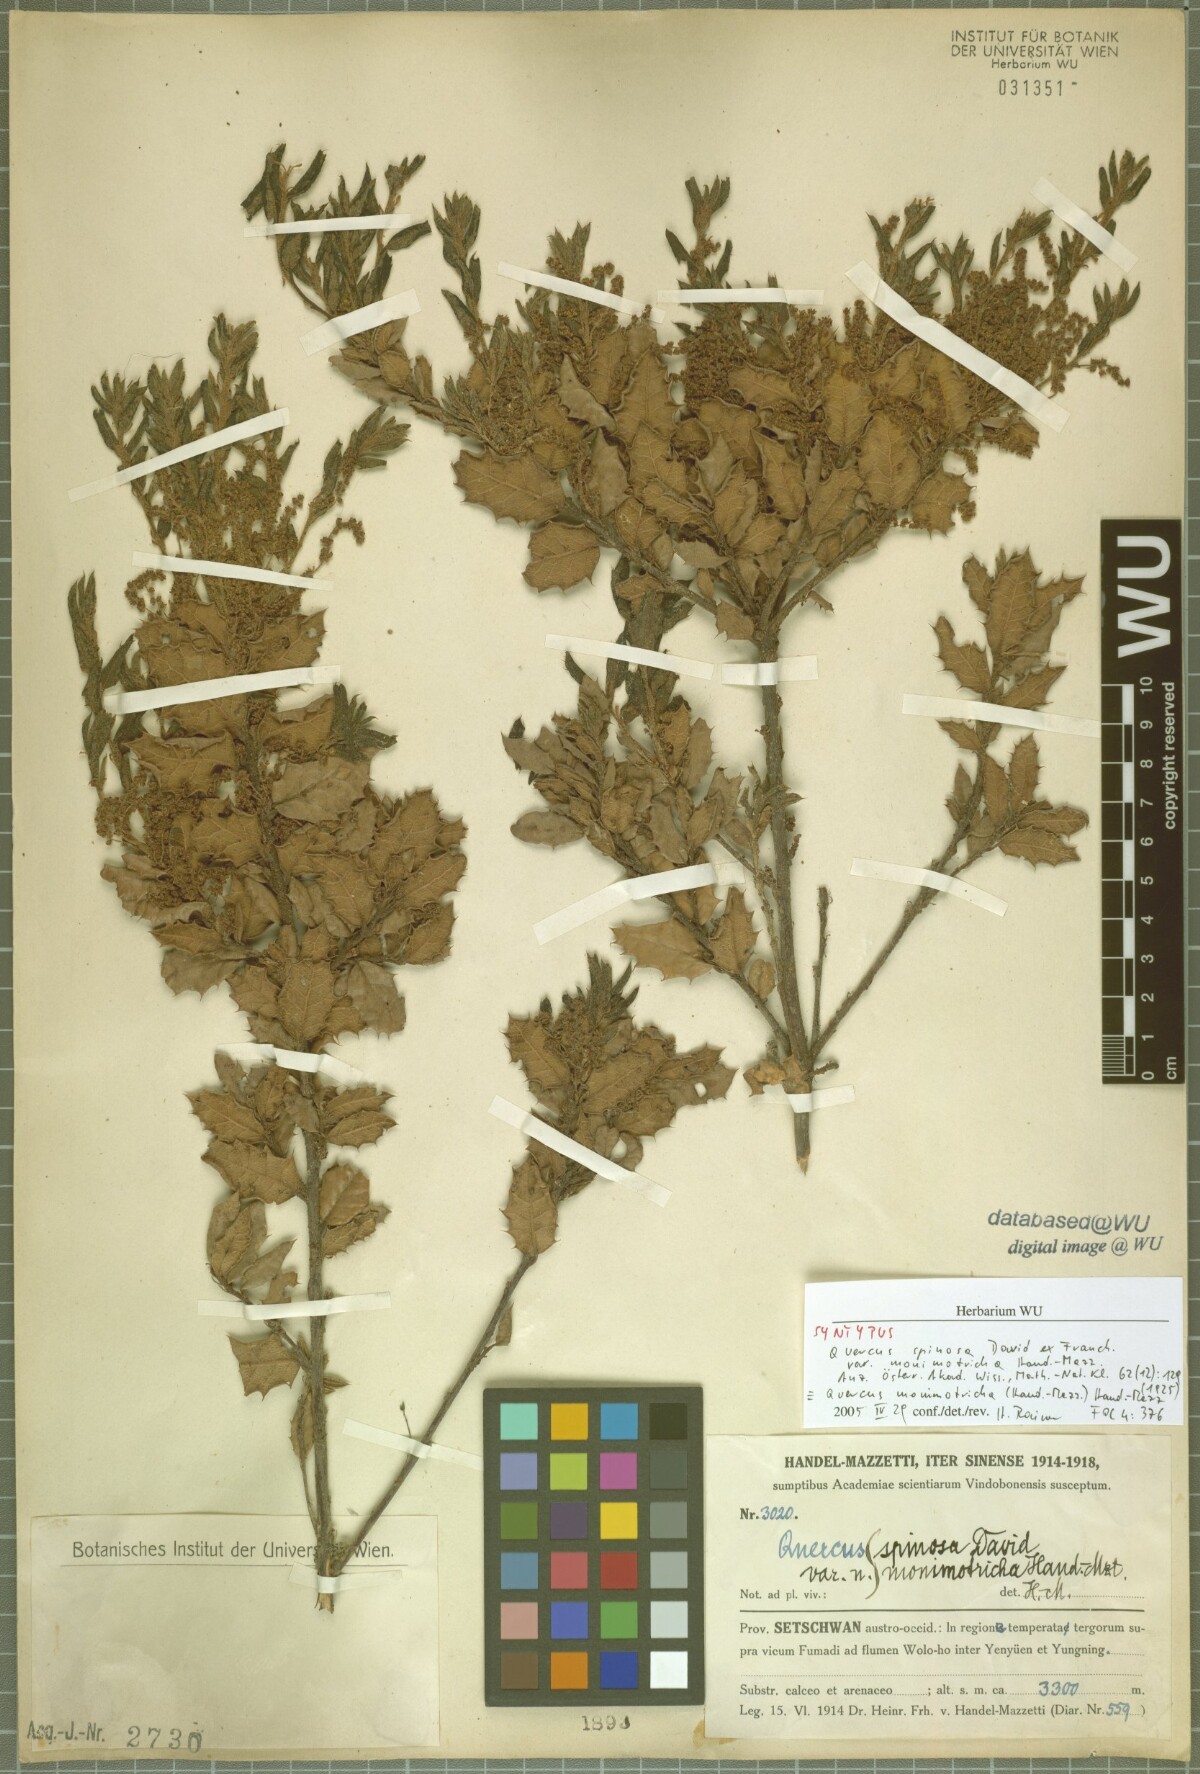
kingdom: Plantae
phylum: Tracheophyta
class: Magnoliopsida
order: Fagales
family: Fagaceae
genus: Quercus
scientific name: Quercus monimotricha
